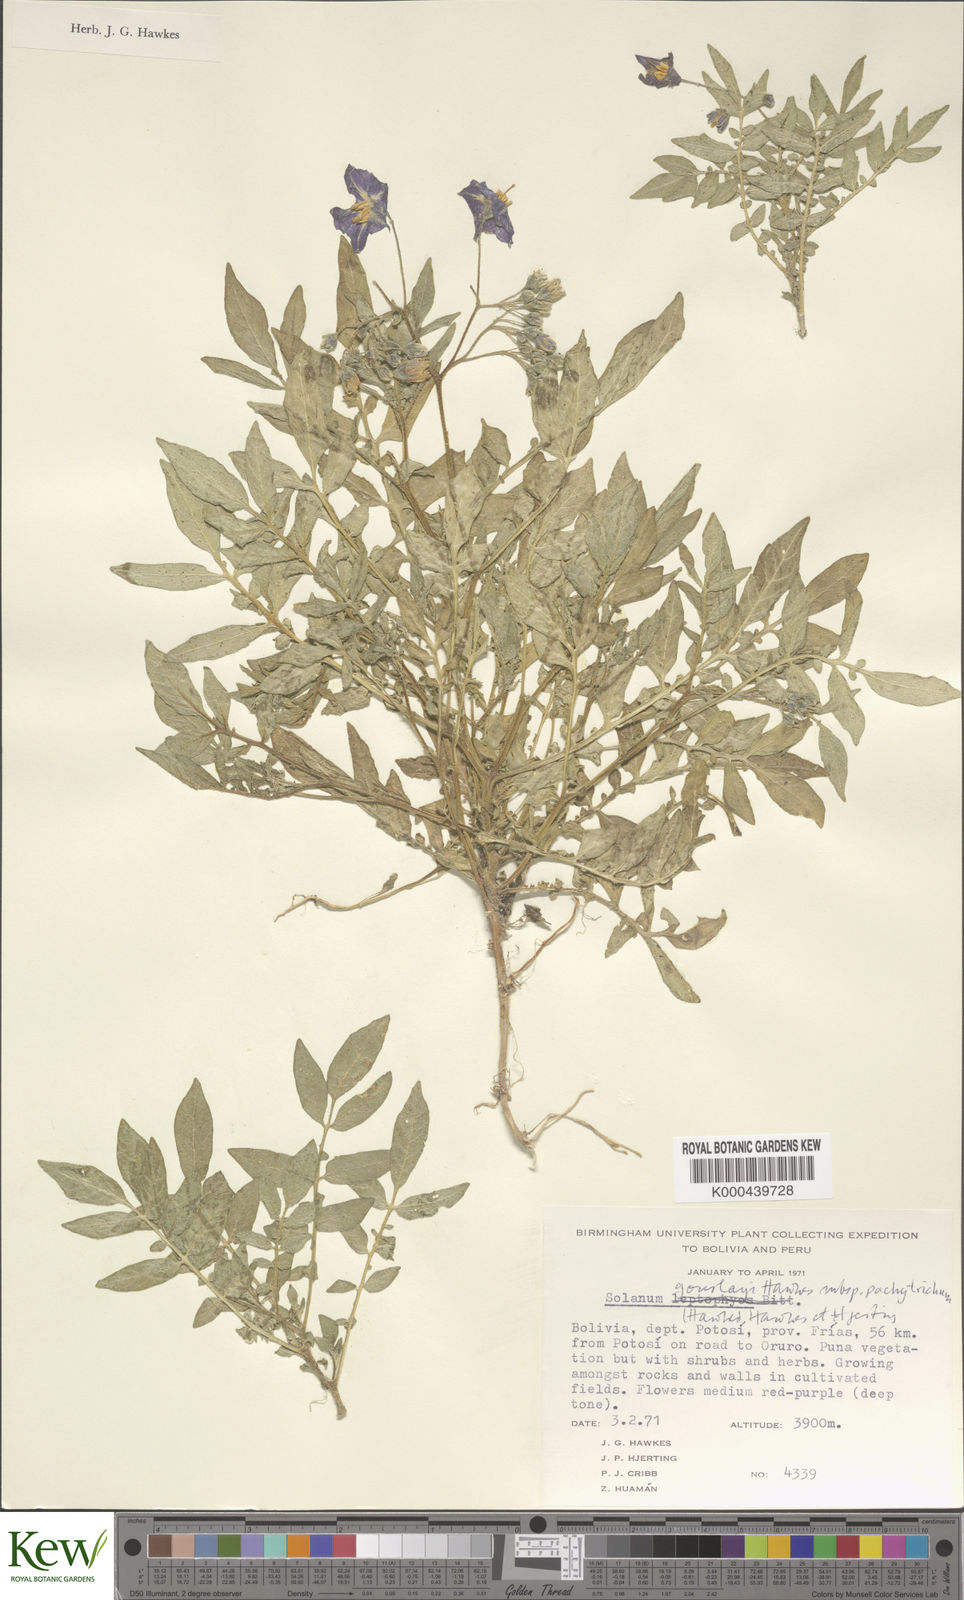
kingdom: Plantae
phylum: Tracheophyta
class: Magnoliopsida
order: Solanales
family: Solanaceae
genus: Solanum
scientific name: Solanum brevicaule
